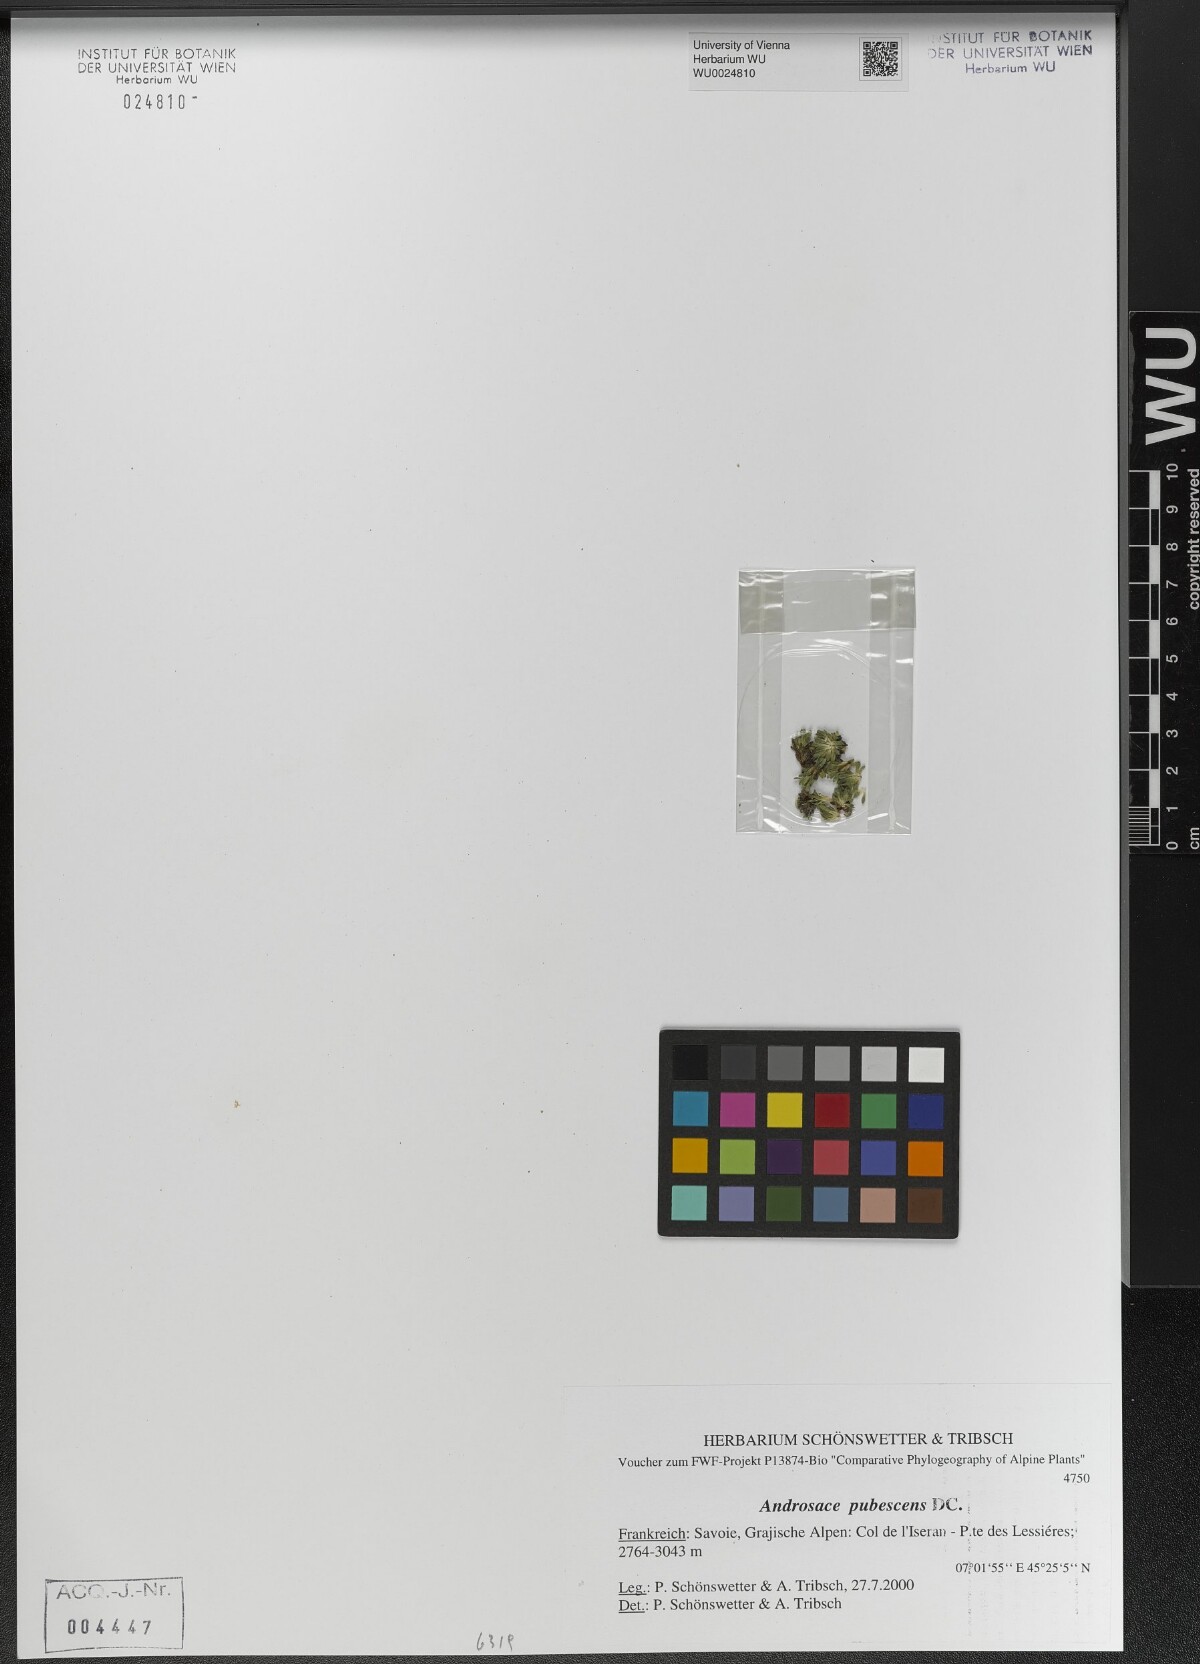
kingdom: Plantae
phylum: Tracheophyta
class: Magnoliopsida
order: Ericales
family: Primulaceae
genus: Androsace
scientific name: Androsace pubescens
